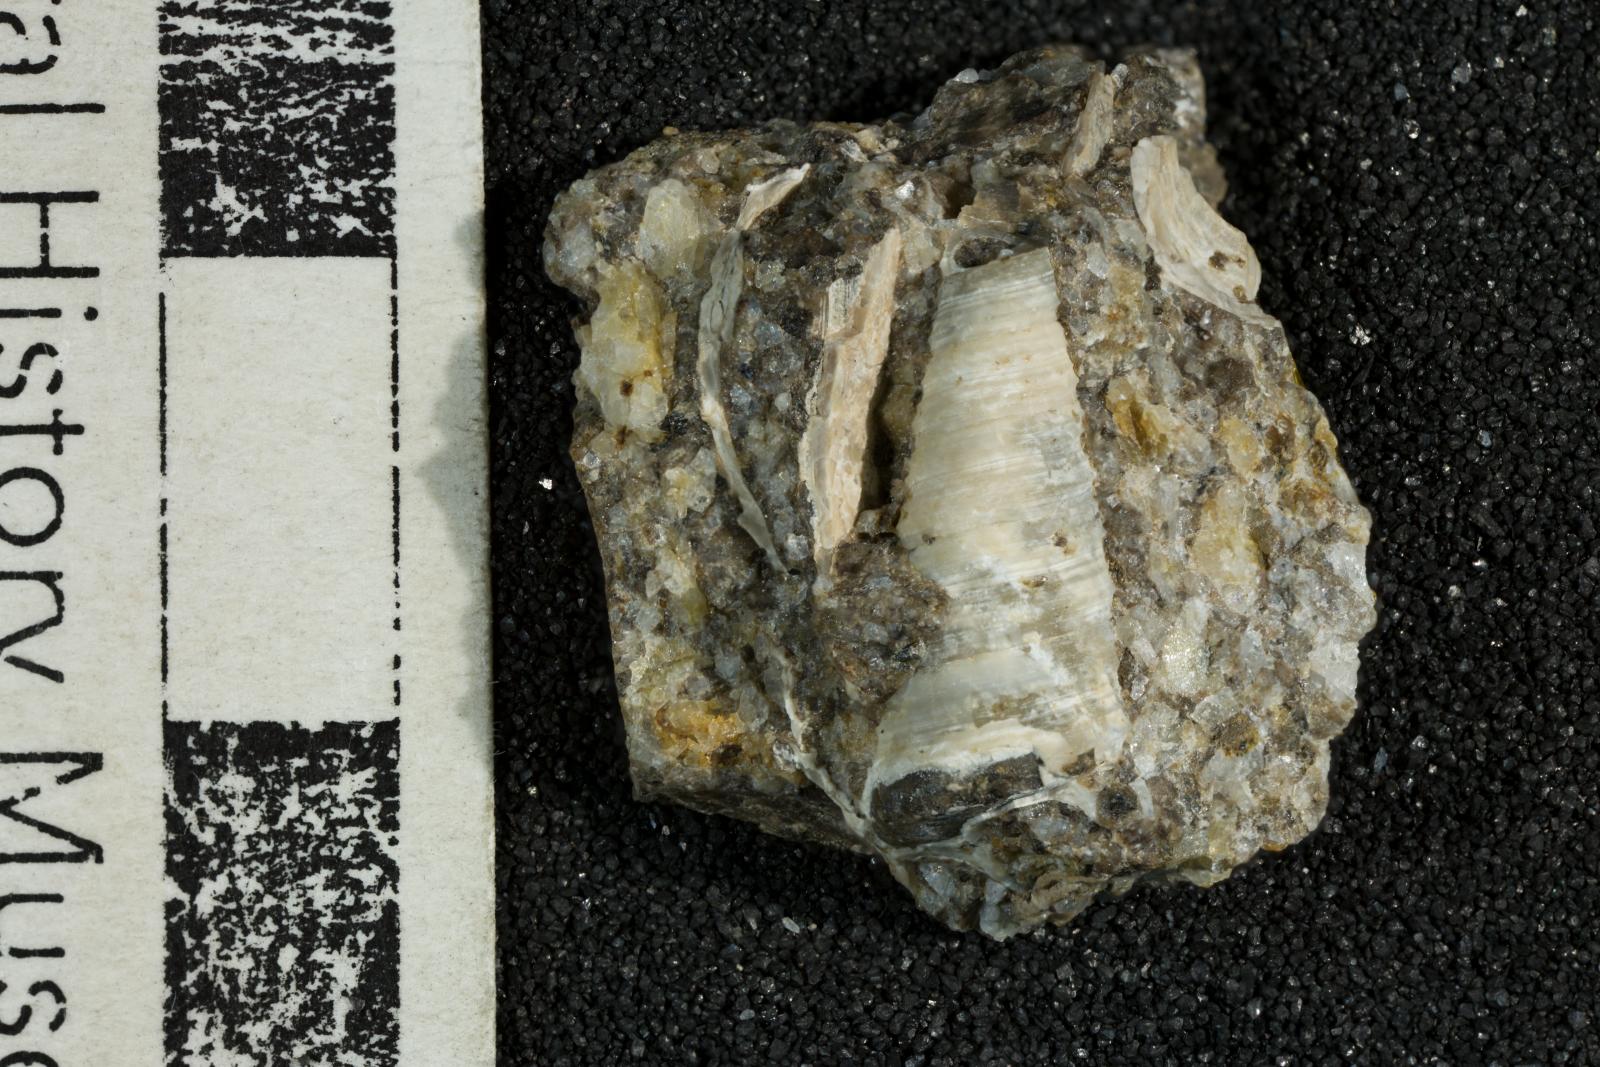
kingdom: Animalia
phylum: Mollusca
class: Gastropoda
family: Turritellidae
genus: Turritella
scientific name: Turritella
